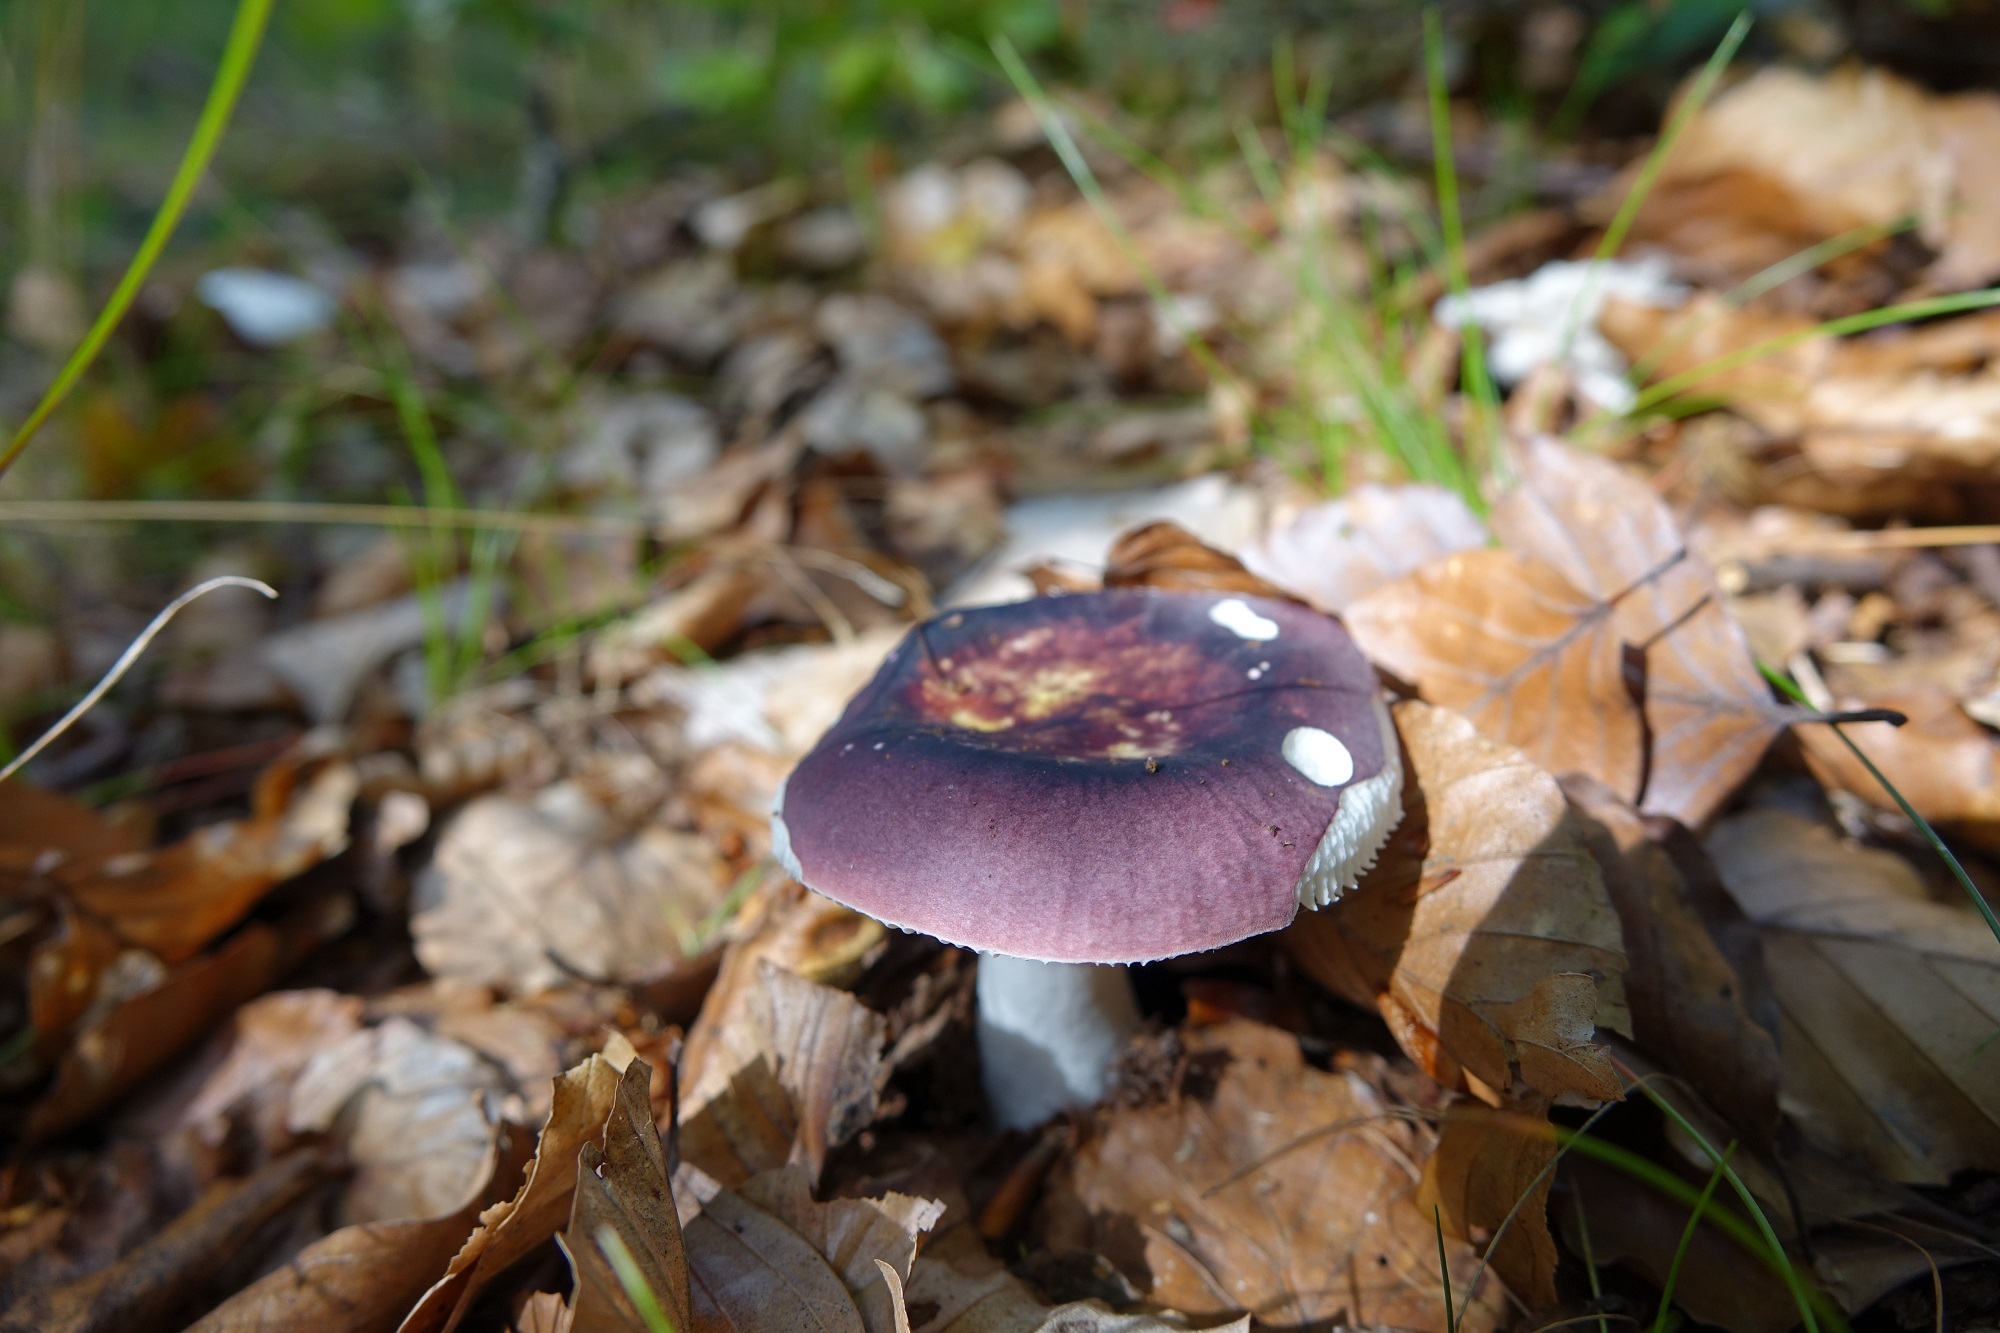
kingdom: Fungi
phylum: Basidiomycota
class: Agaricomycetes
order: Russulales
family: Russulaceae
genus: Russula
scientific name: Russula brunneoviolacea
